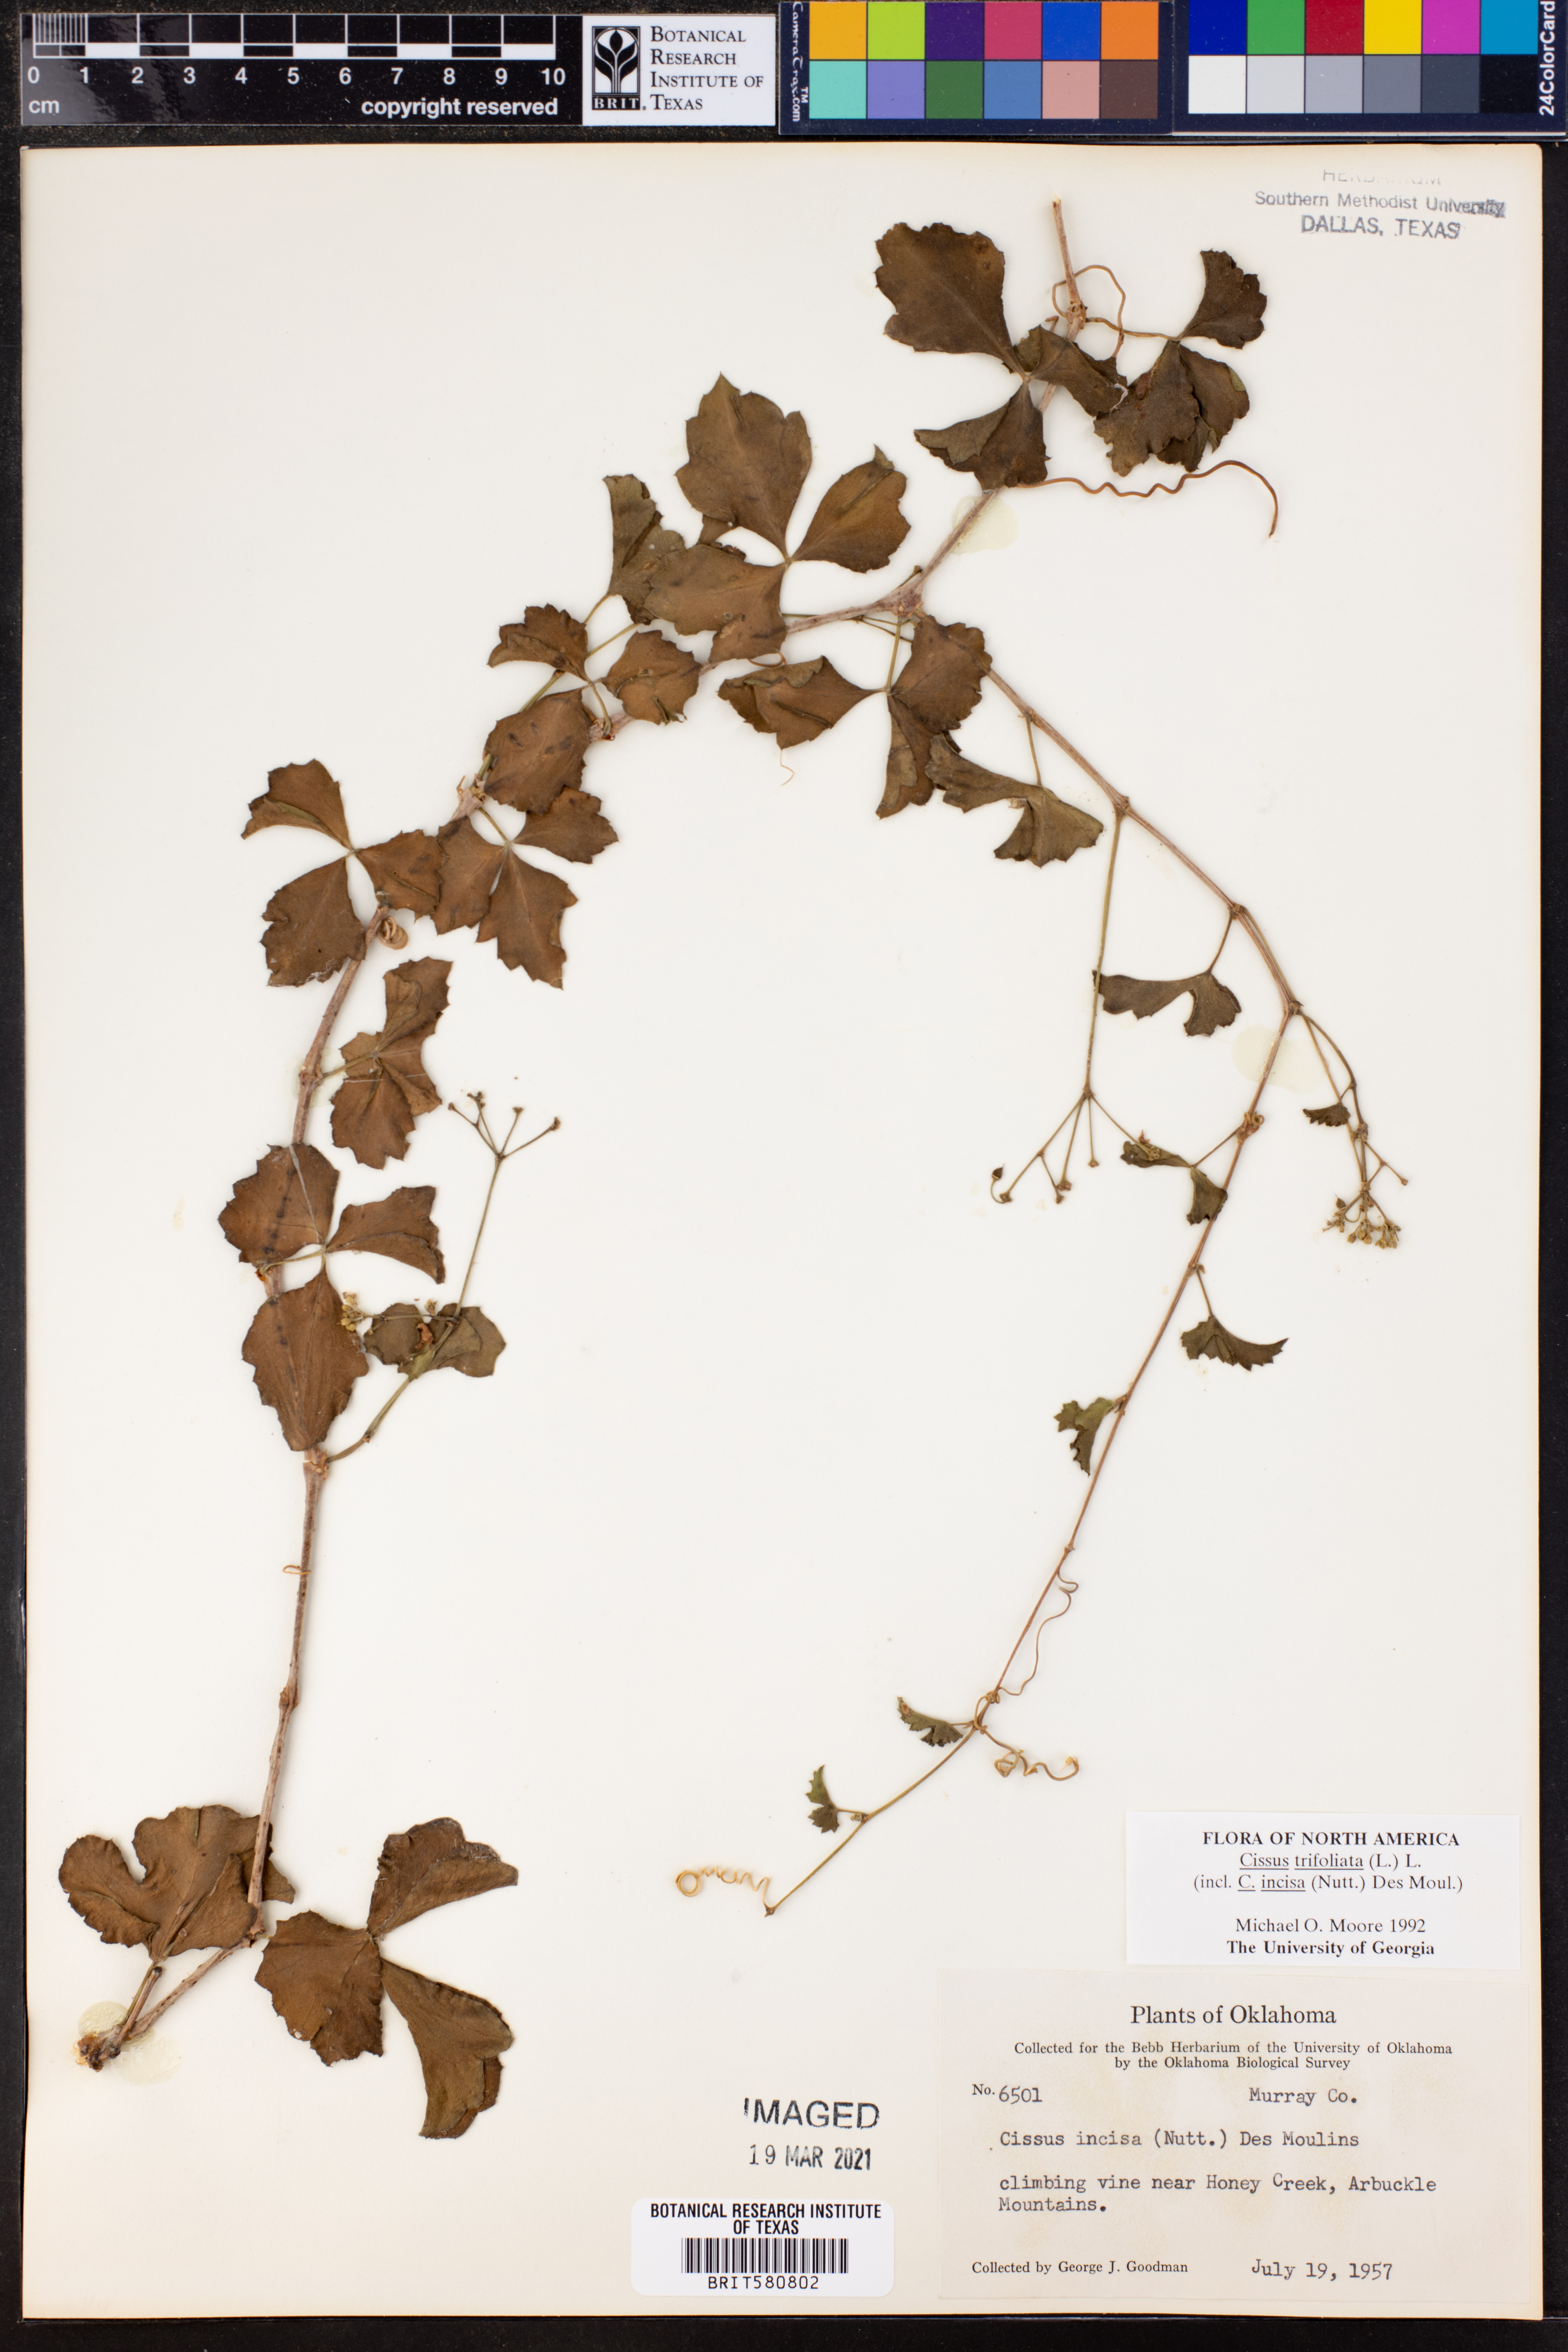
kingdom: Plantae
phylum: Tracheophyta
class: Magnoliopsida
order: Vitales
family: Vitaceae
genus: Cissus
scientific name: Cissus trifoliata
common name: Vine-sorrel
